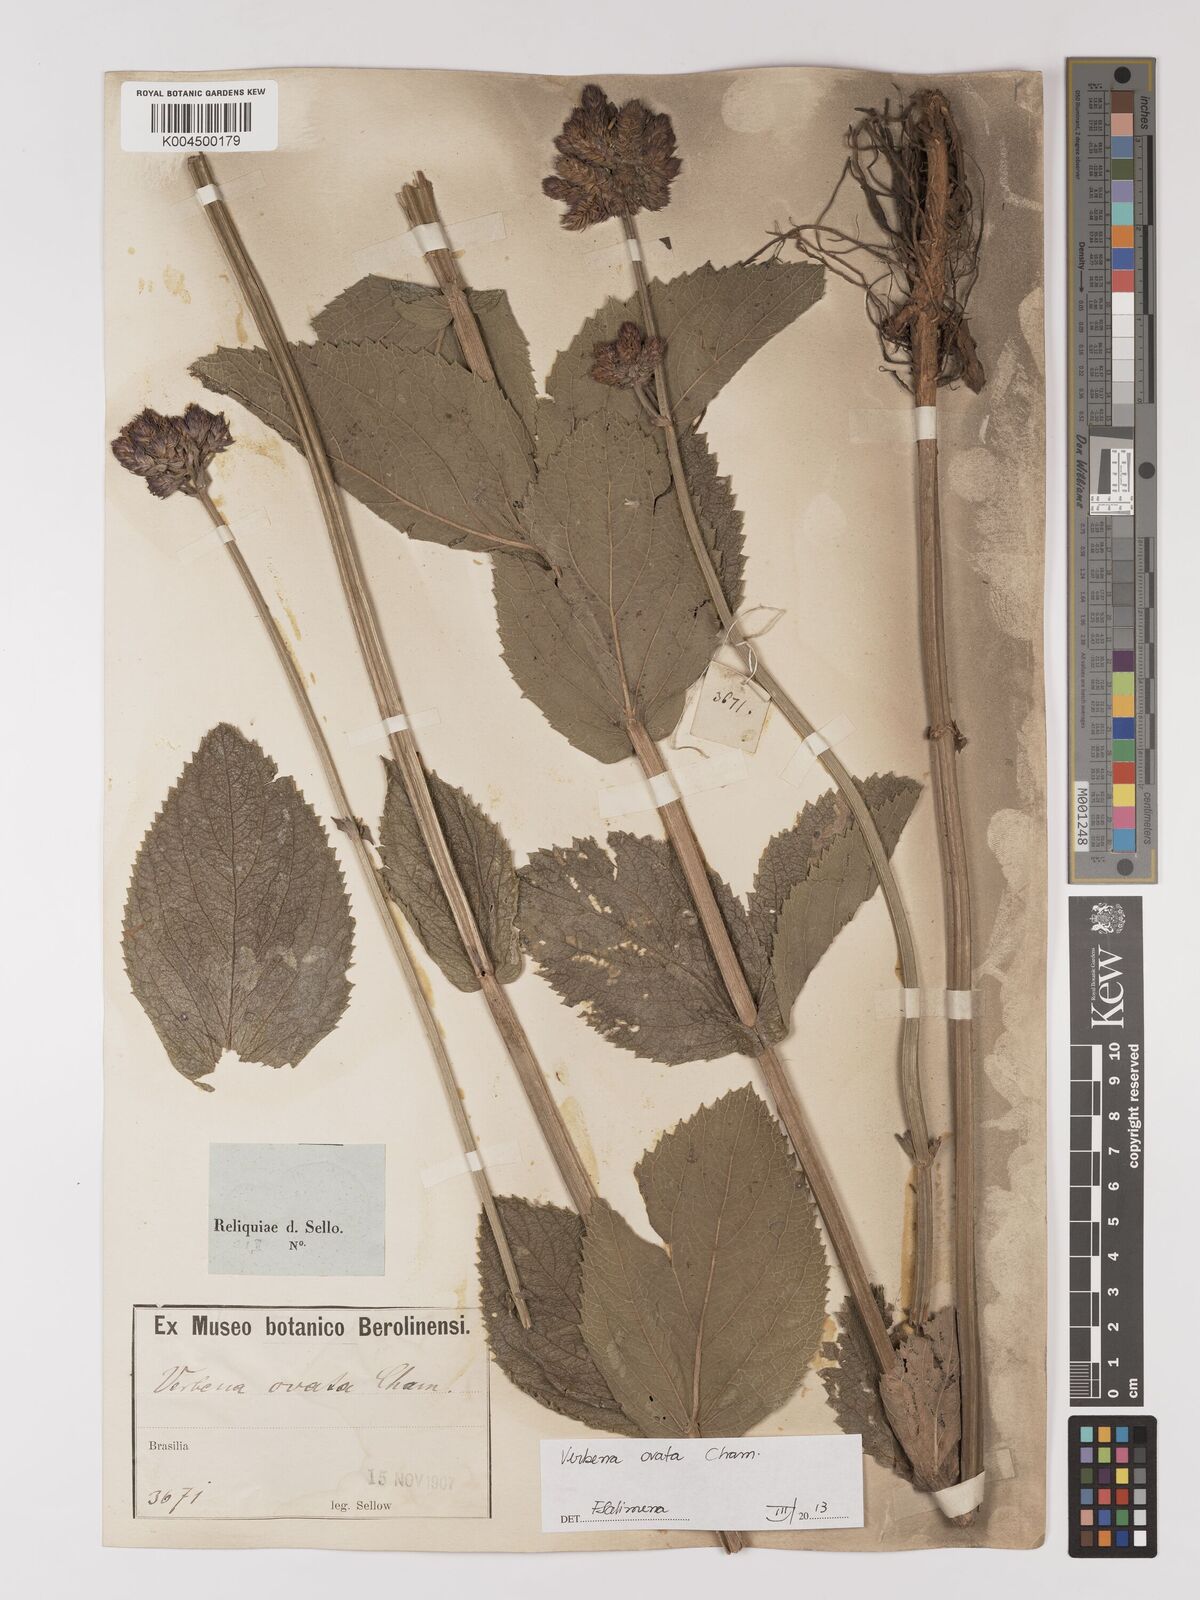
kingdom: Plantae
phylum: Tracheophyta
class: Magnoliopsida
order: Lamiales
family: Verbenaceae
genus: Verbena
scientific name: Verbena ovata
